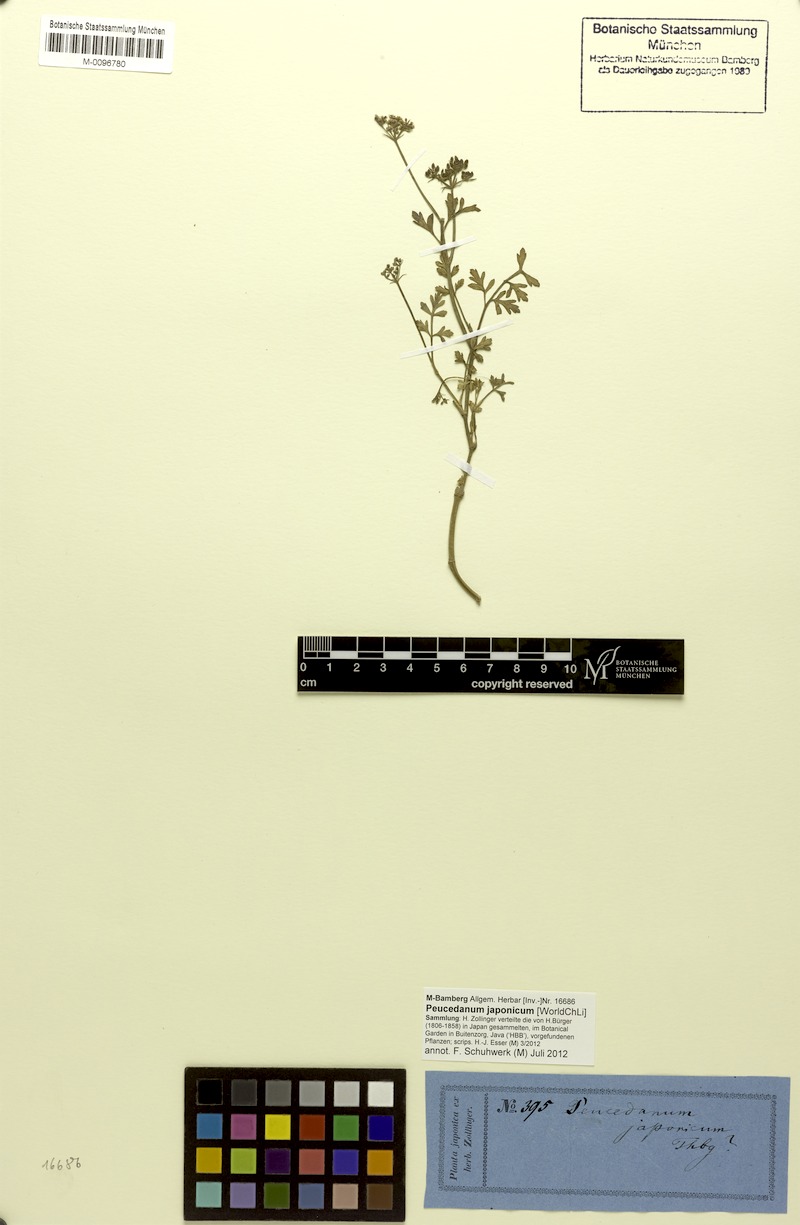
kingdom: Plantae
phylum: Tracheophyta
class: Magnoliopsida
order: Apiales
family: Apiaceae
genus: Peucedanum
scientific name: Peucedanum japonicum
